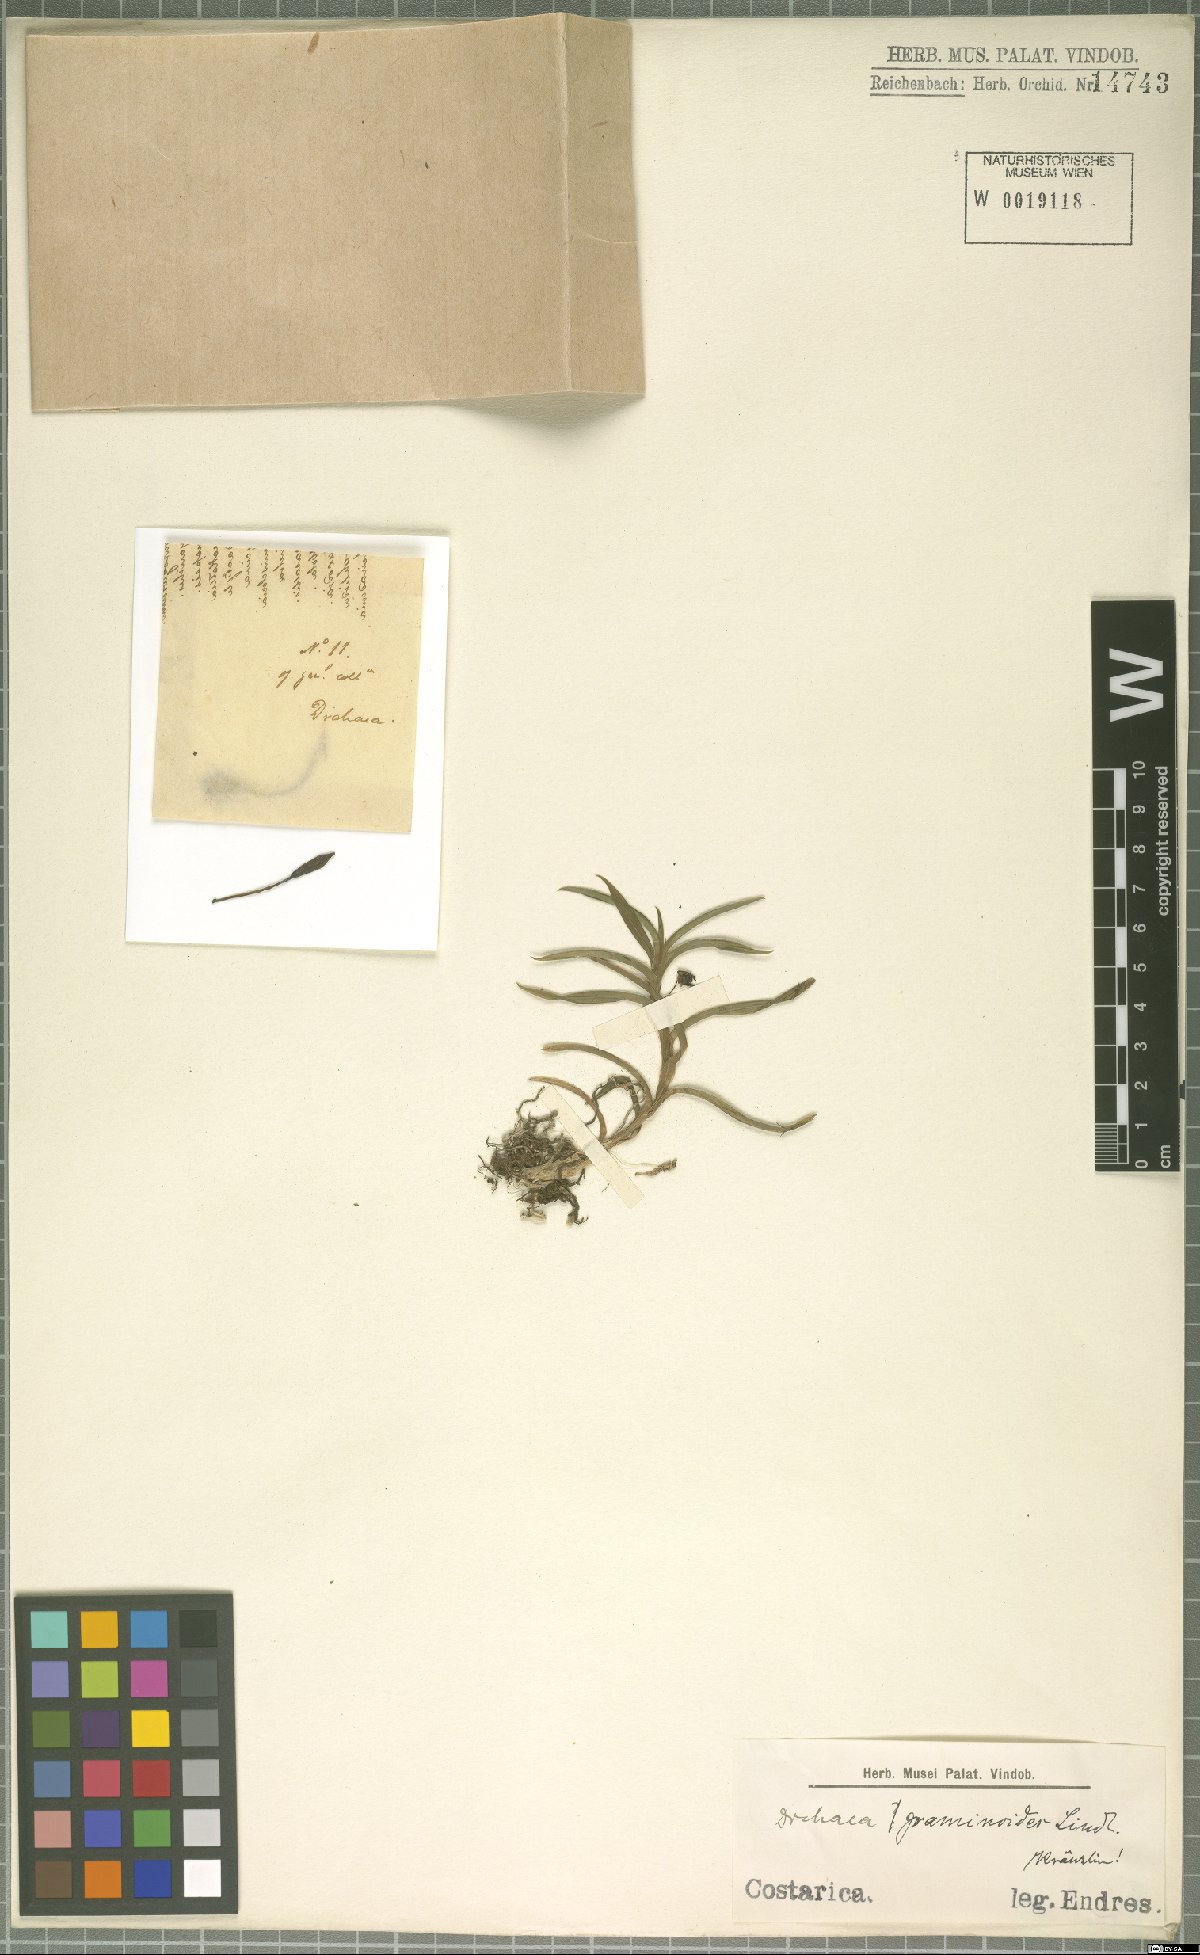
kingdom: Plantae
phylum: Tracheophyta
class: Liliopsida
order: Asparagales
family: Orchidaceae
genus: Dichaea
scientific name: Dichaea graminoides
